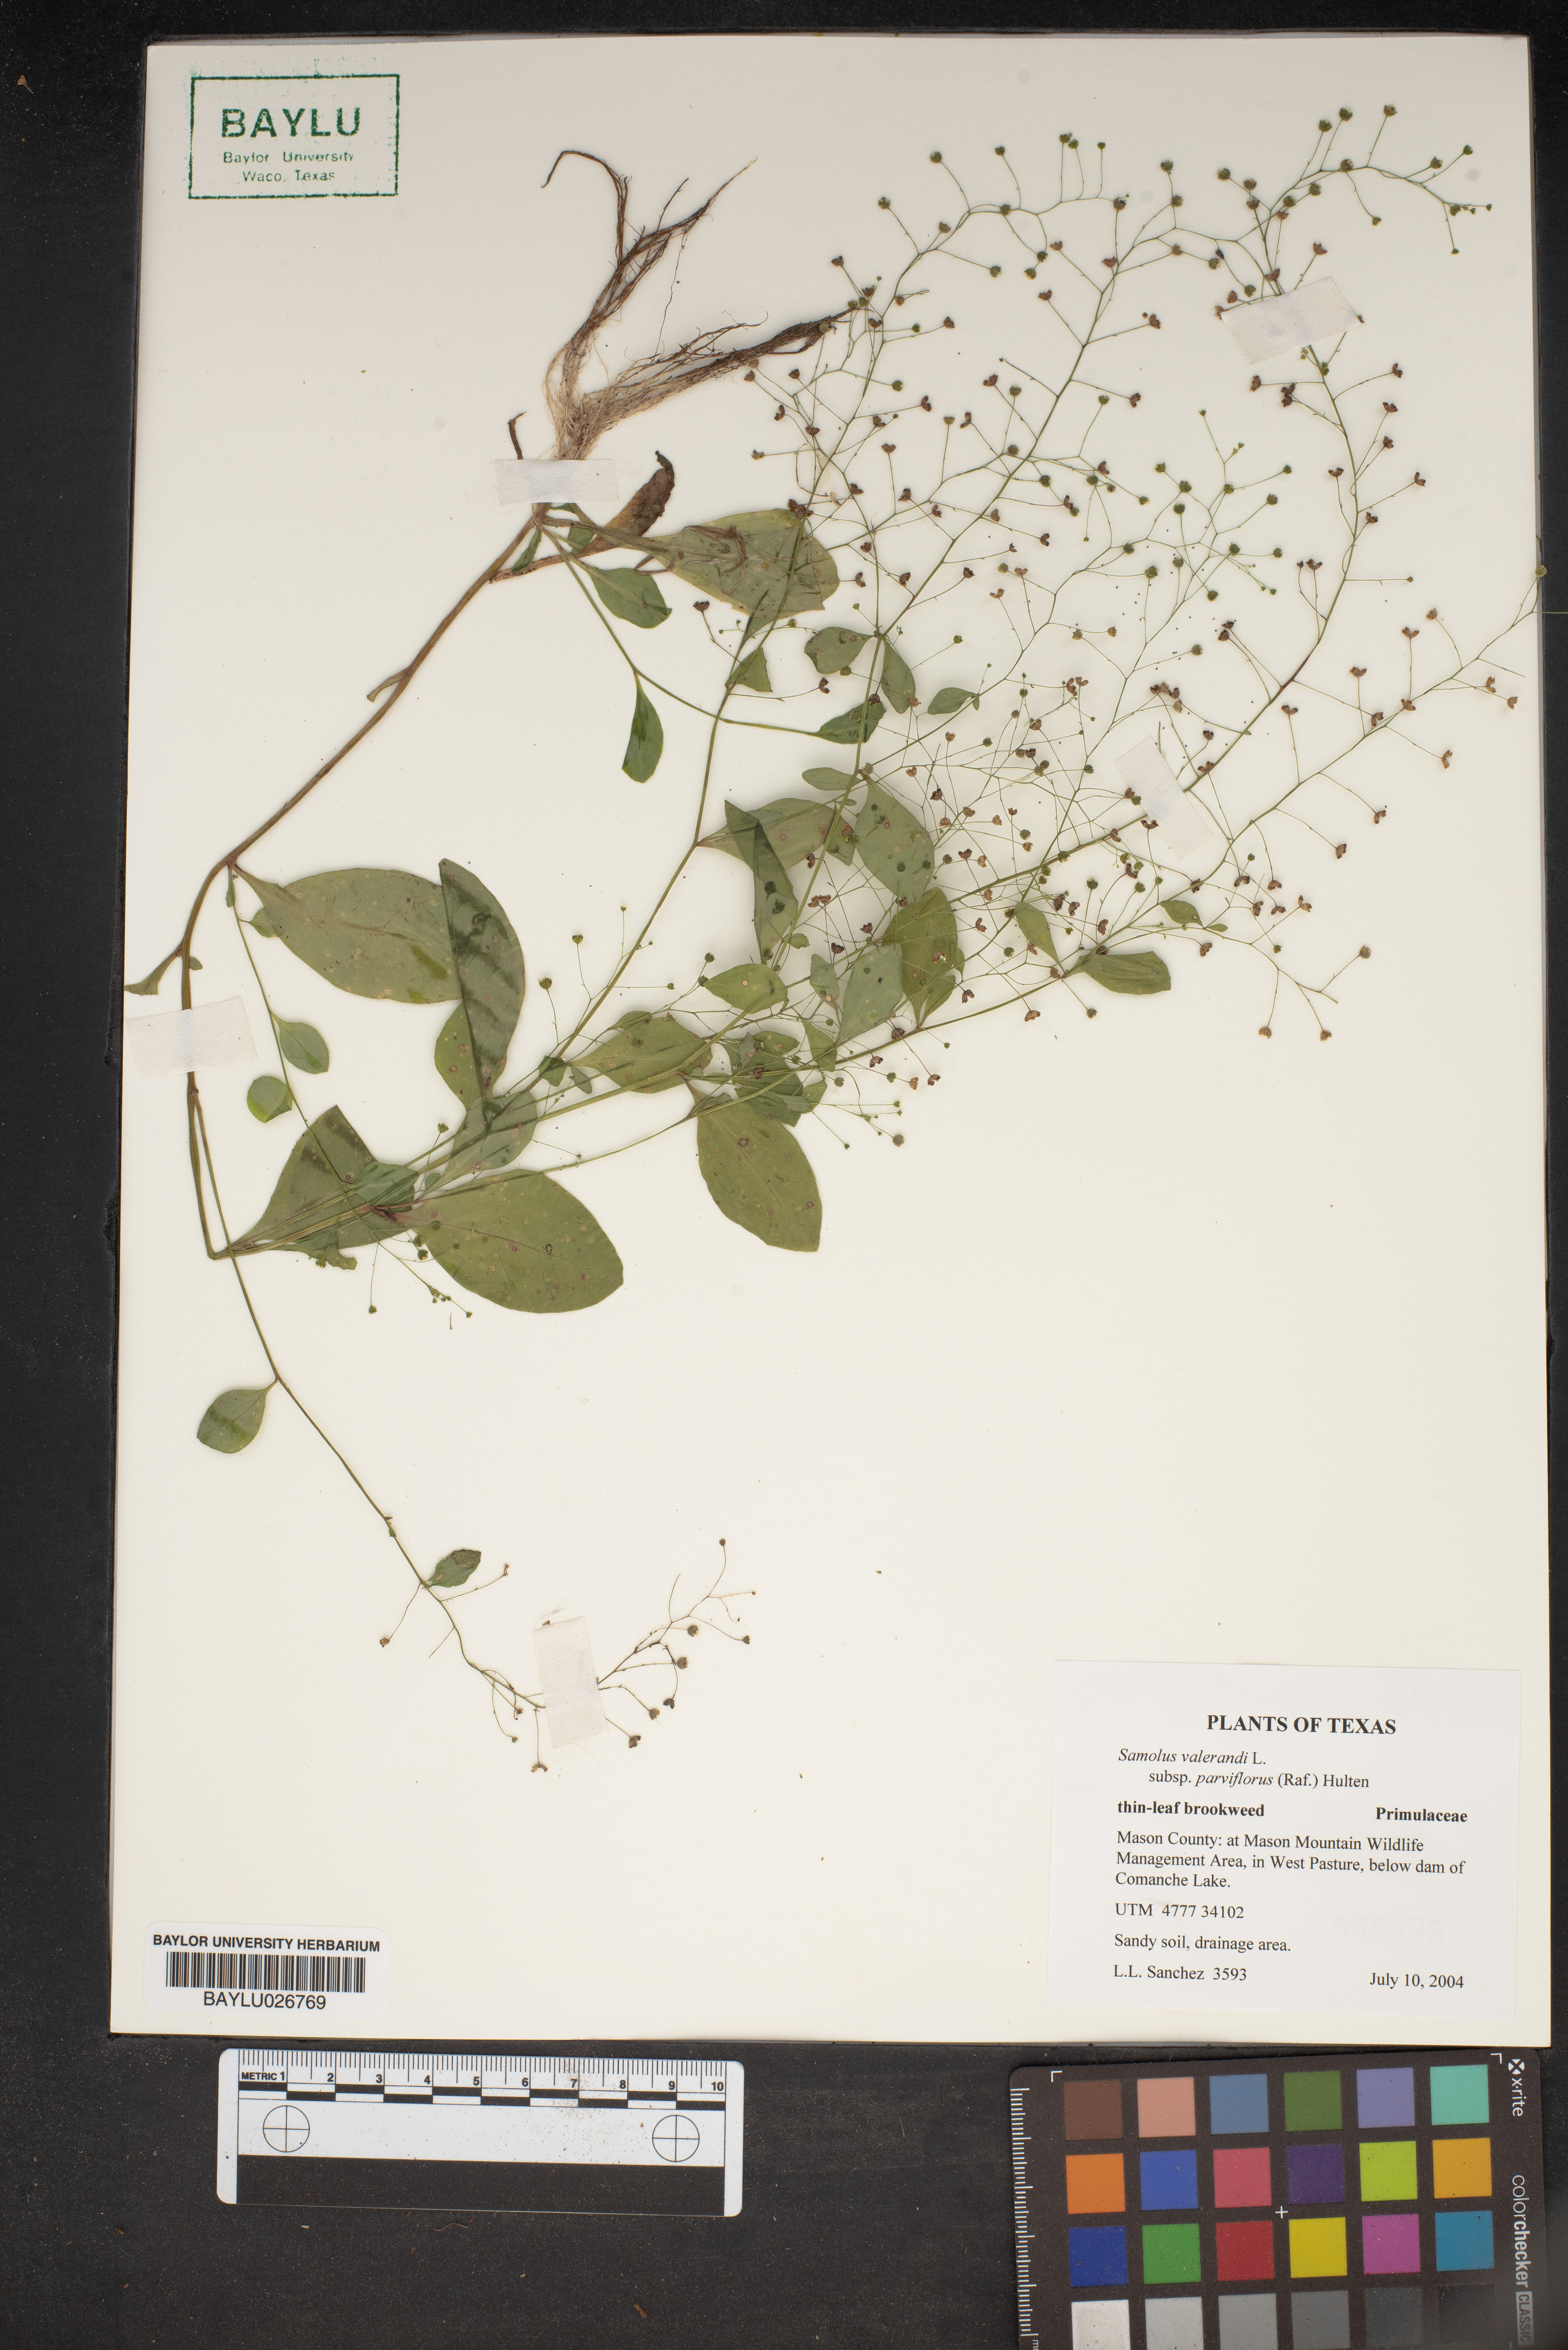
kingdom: Plantae
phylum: Tracheophyta
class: Magnoliopsida
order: Ericales
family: Primulaceae
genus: Samolus
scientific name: Samolus parviflorus
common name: False water pimpernel
